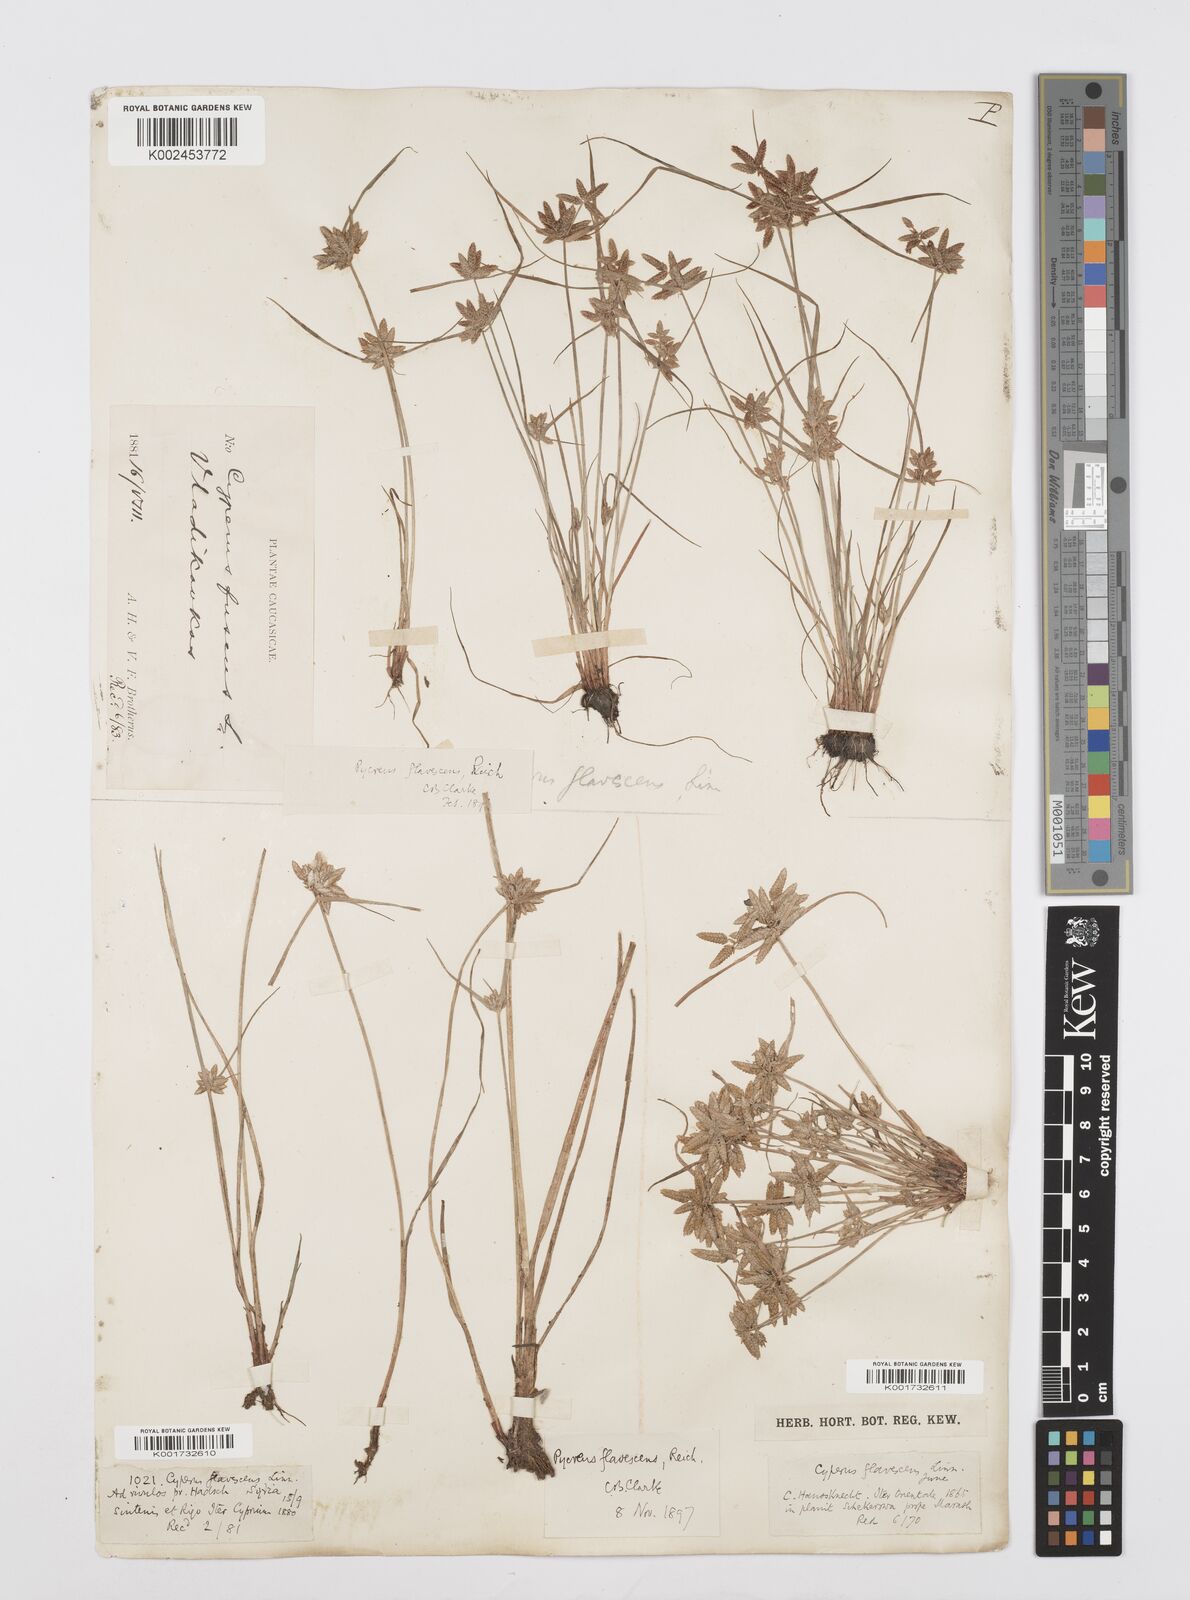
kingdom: Plantae
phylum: Tracheophyta
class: Liliopsida
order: Poales
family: Cyperaceae
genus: Cyperus
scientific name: Cyperus flavescens
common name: Yellow galingale
